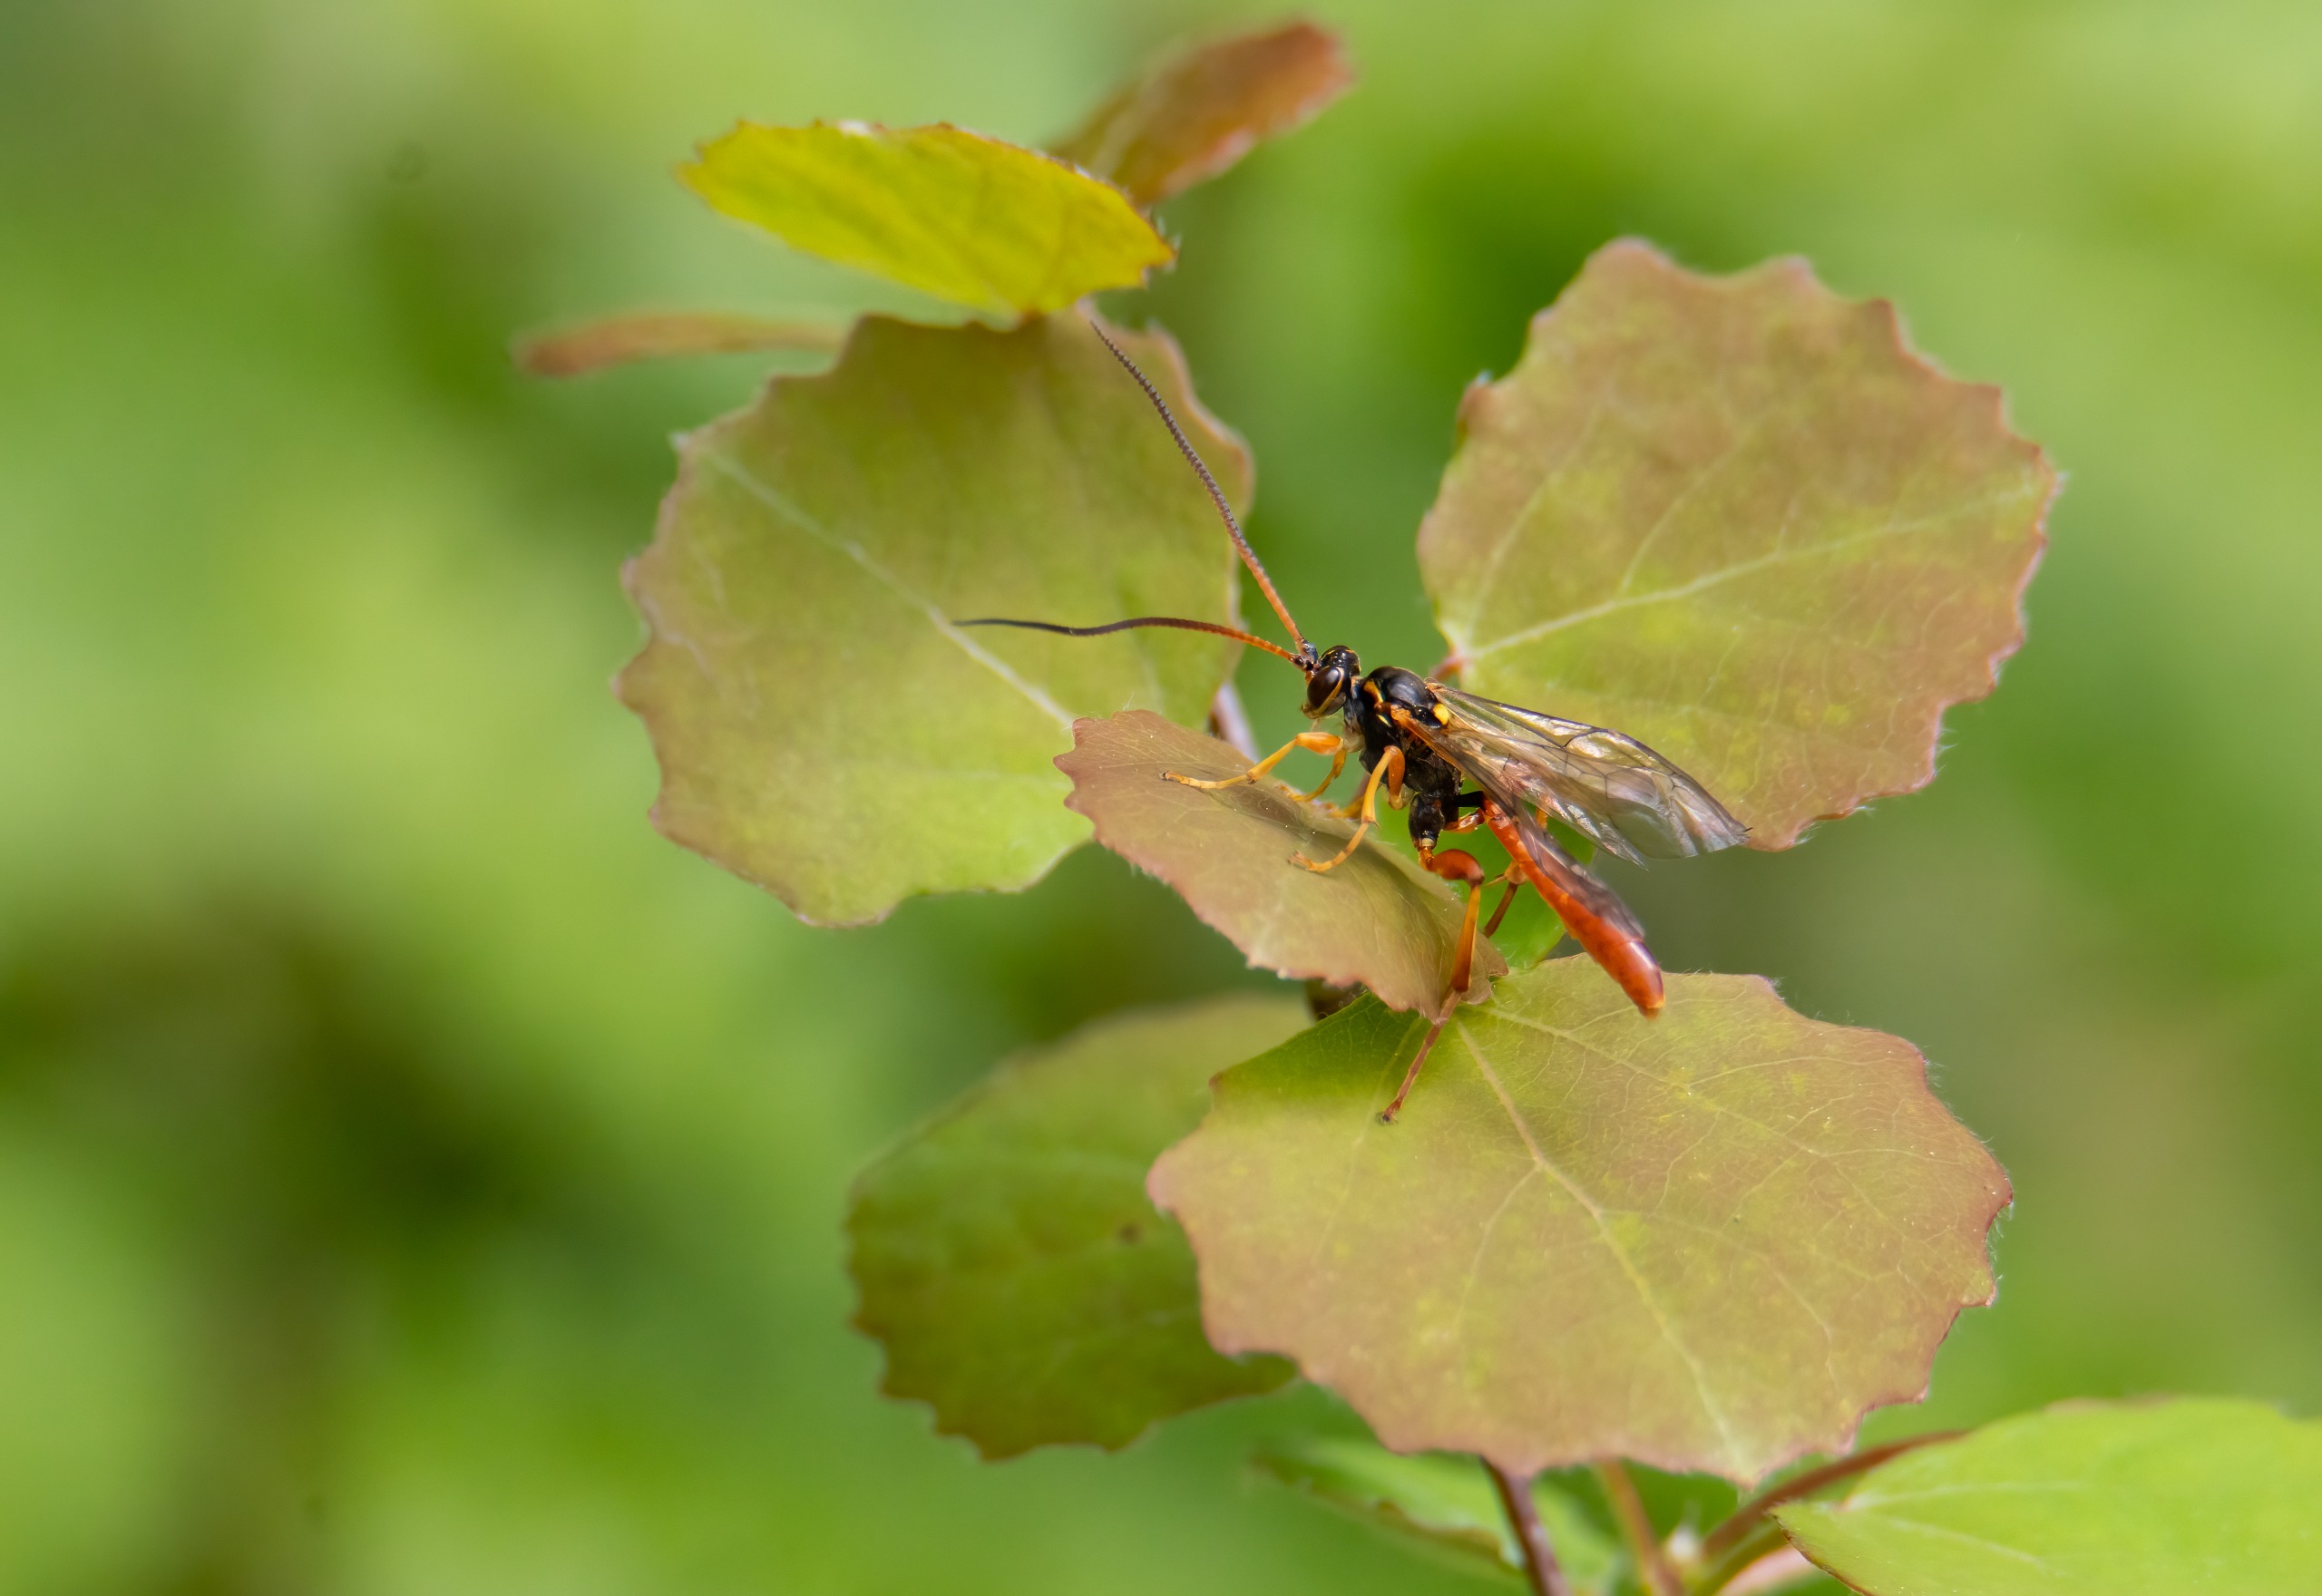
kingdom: Animalia
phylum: Arthropoda
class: Insecta
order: Hymenoptera
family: Ichneumonidae
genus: Cratichneumon
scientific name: Cratichneumon luteiventris
